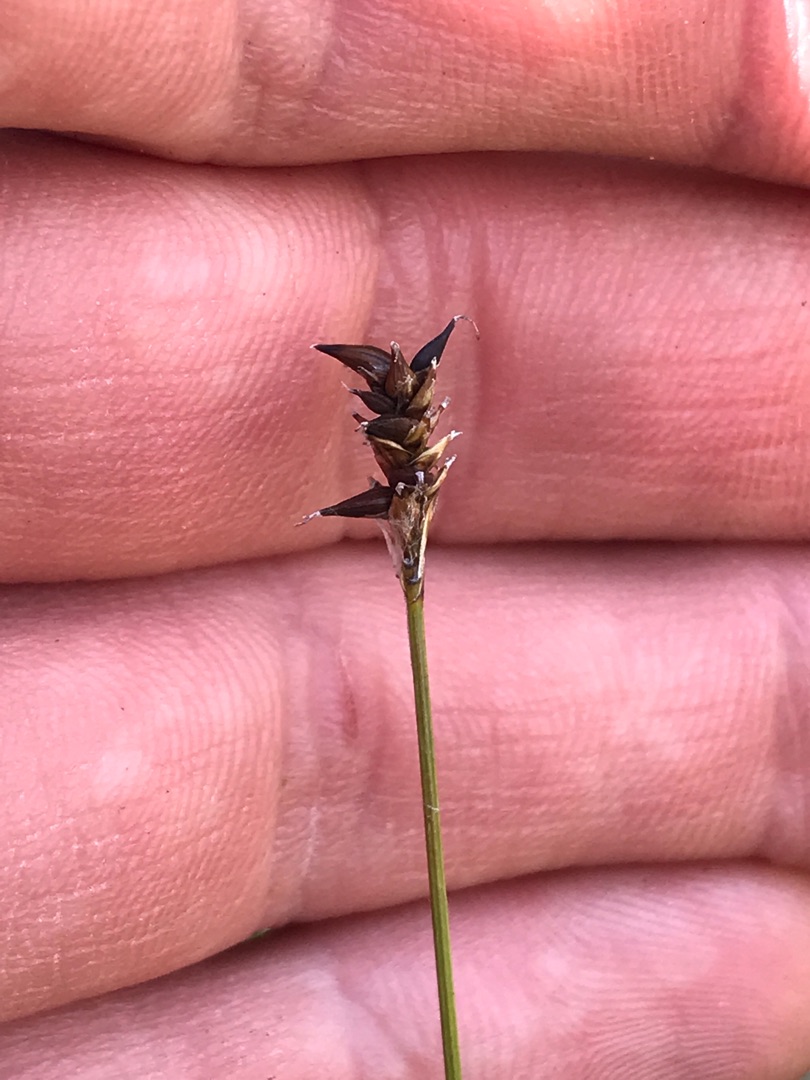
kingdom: Plantae
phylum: Tracheophyta
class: Liliopsida
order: Poales
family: Cyperaceae
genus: Carex
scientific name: Carex dioica
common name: Tvebo star
